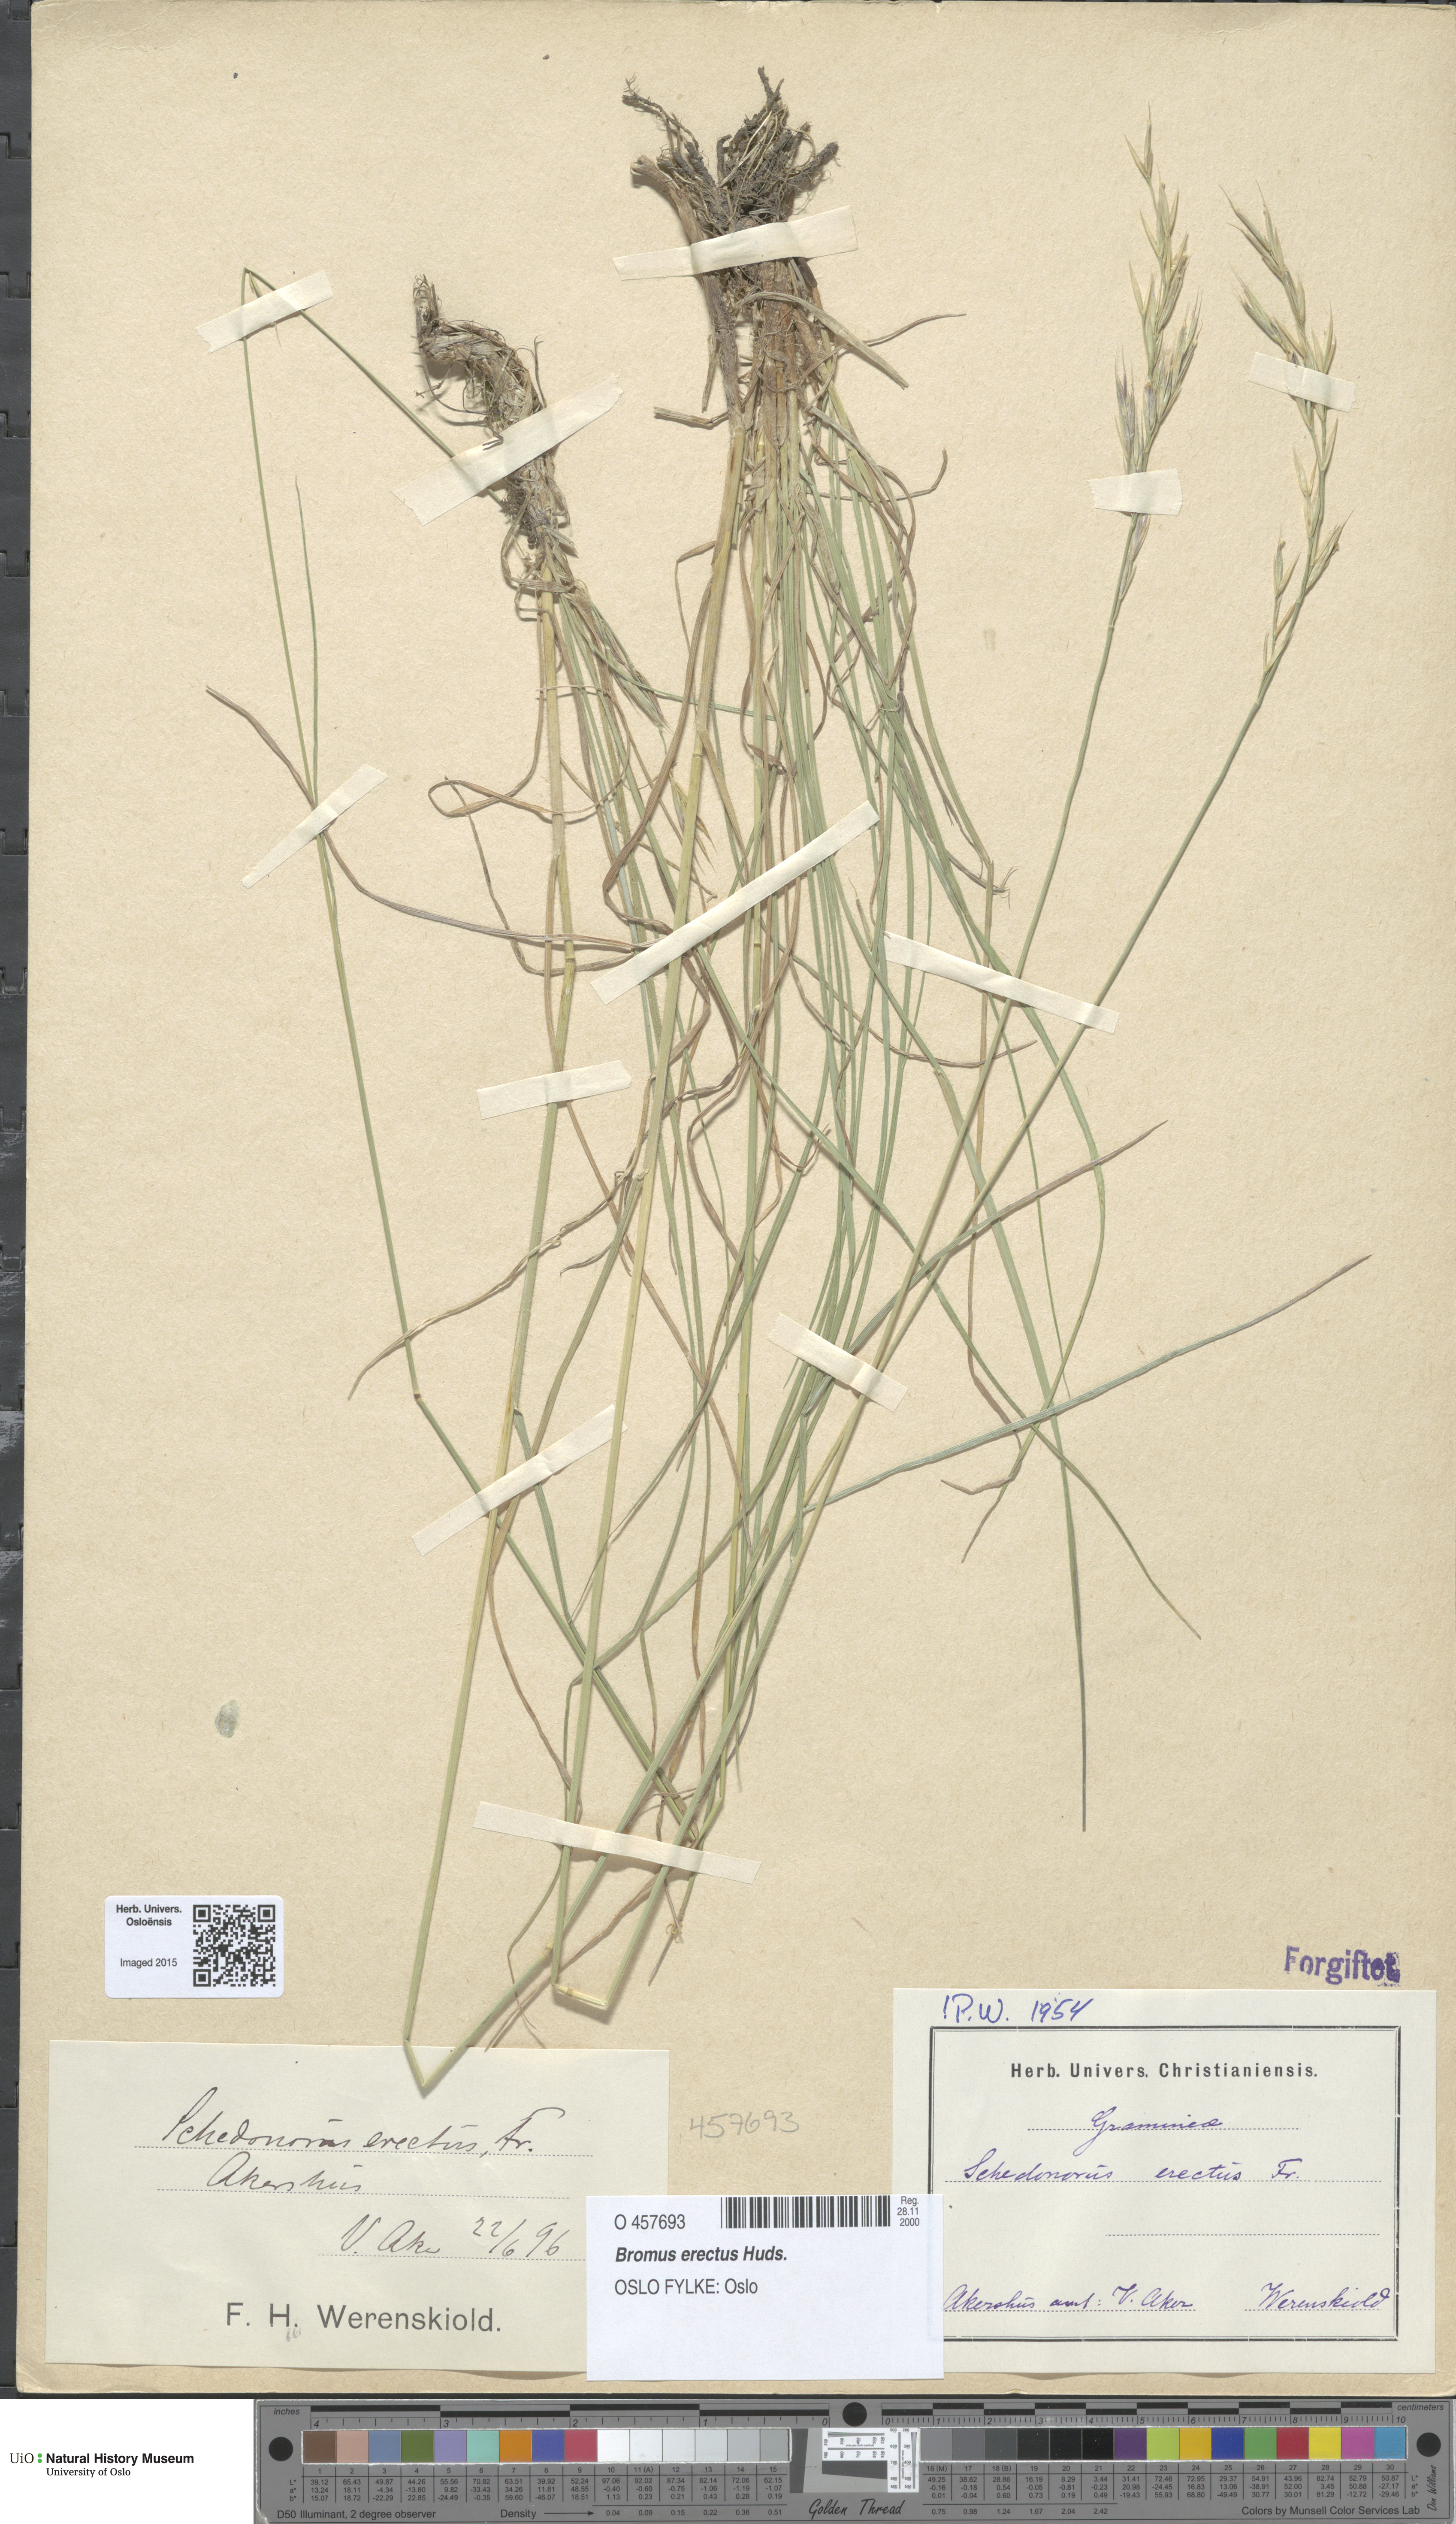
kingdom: Plantae
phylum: Tracheophyta
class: Liliopsida
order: Poales
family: Poaceae
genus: Bromus
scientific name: Bromus erectus
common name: Erect brome
